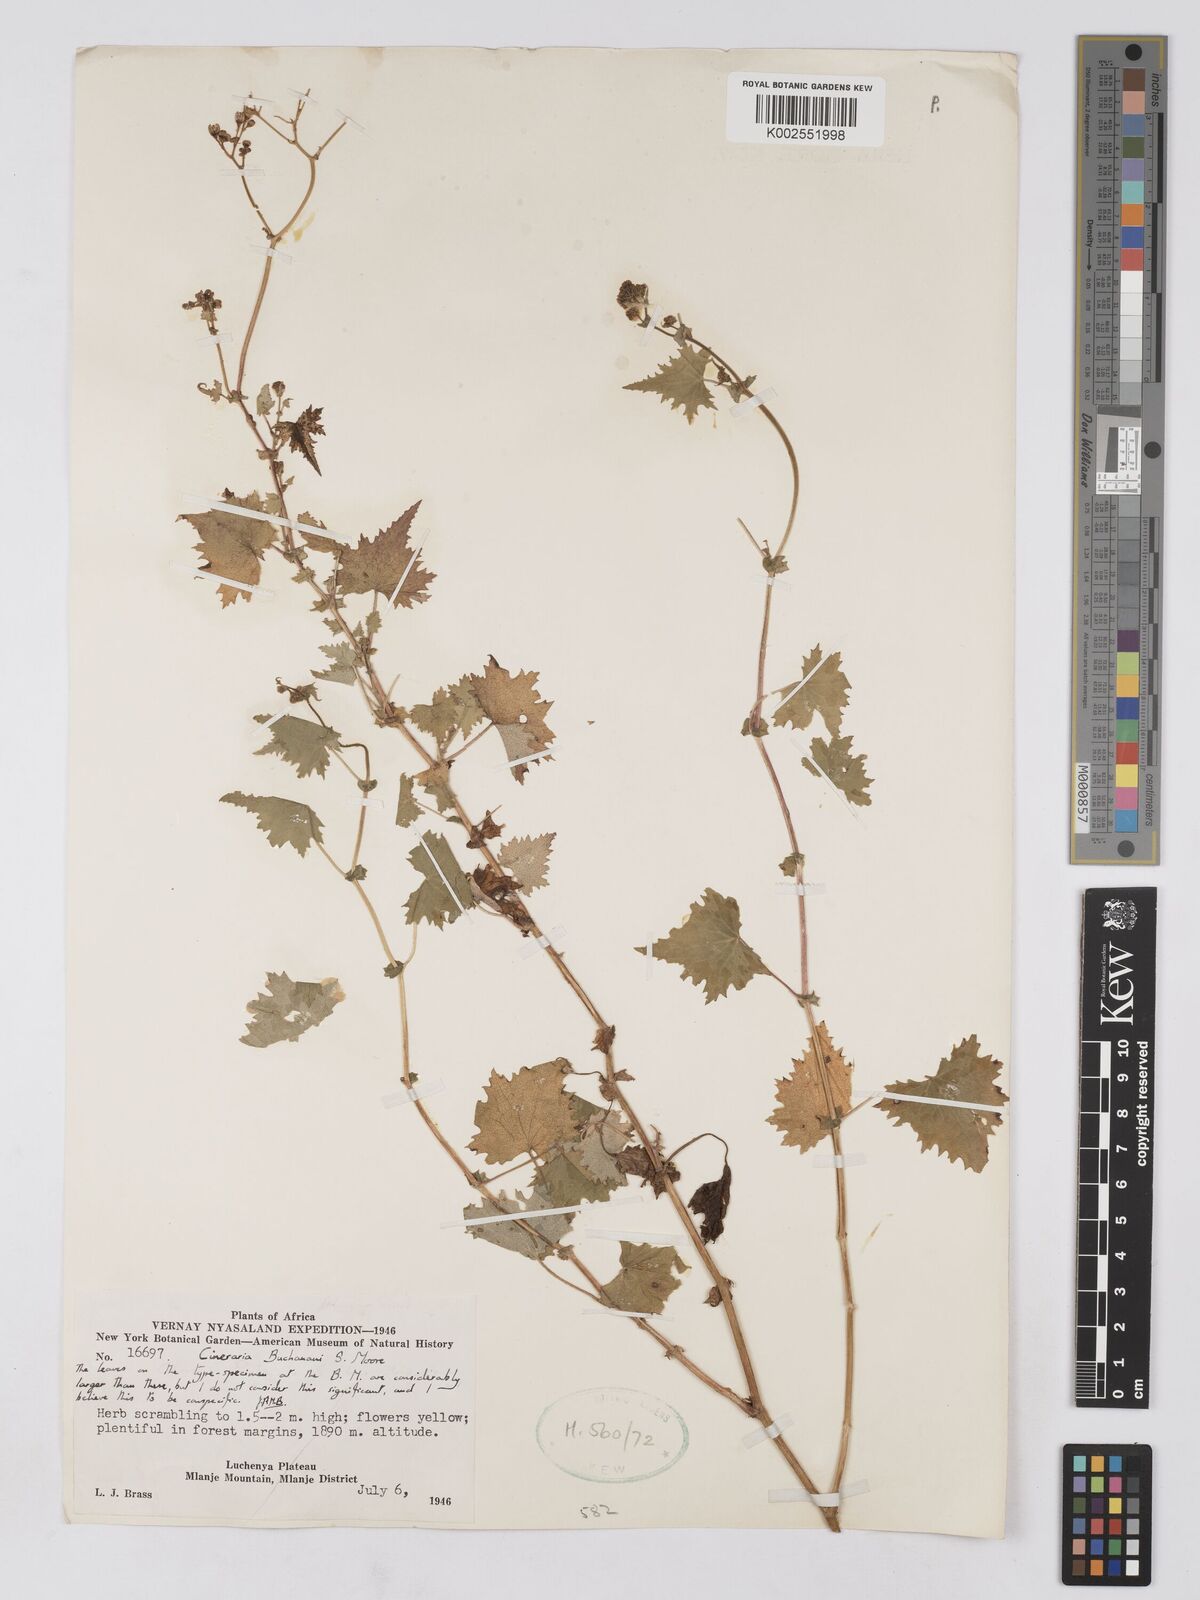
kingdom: Plantae
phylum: Tracheophyta
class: Magnoliopsida
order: Asterales
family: Asteraceae
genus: Cineraria
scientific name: Cineraria deltoidea
